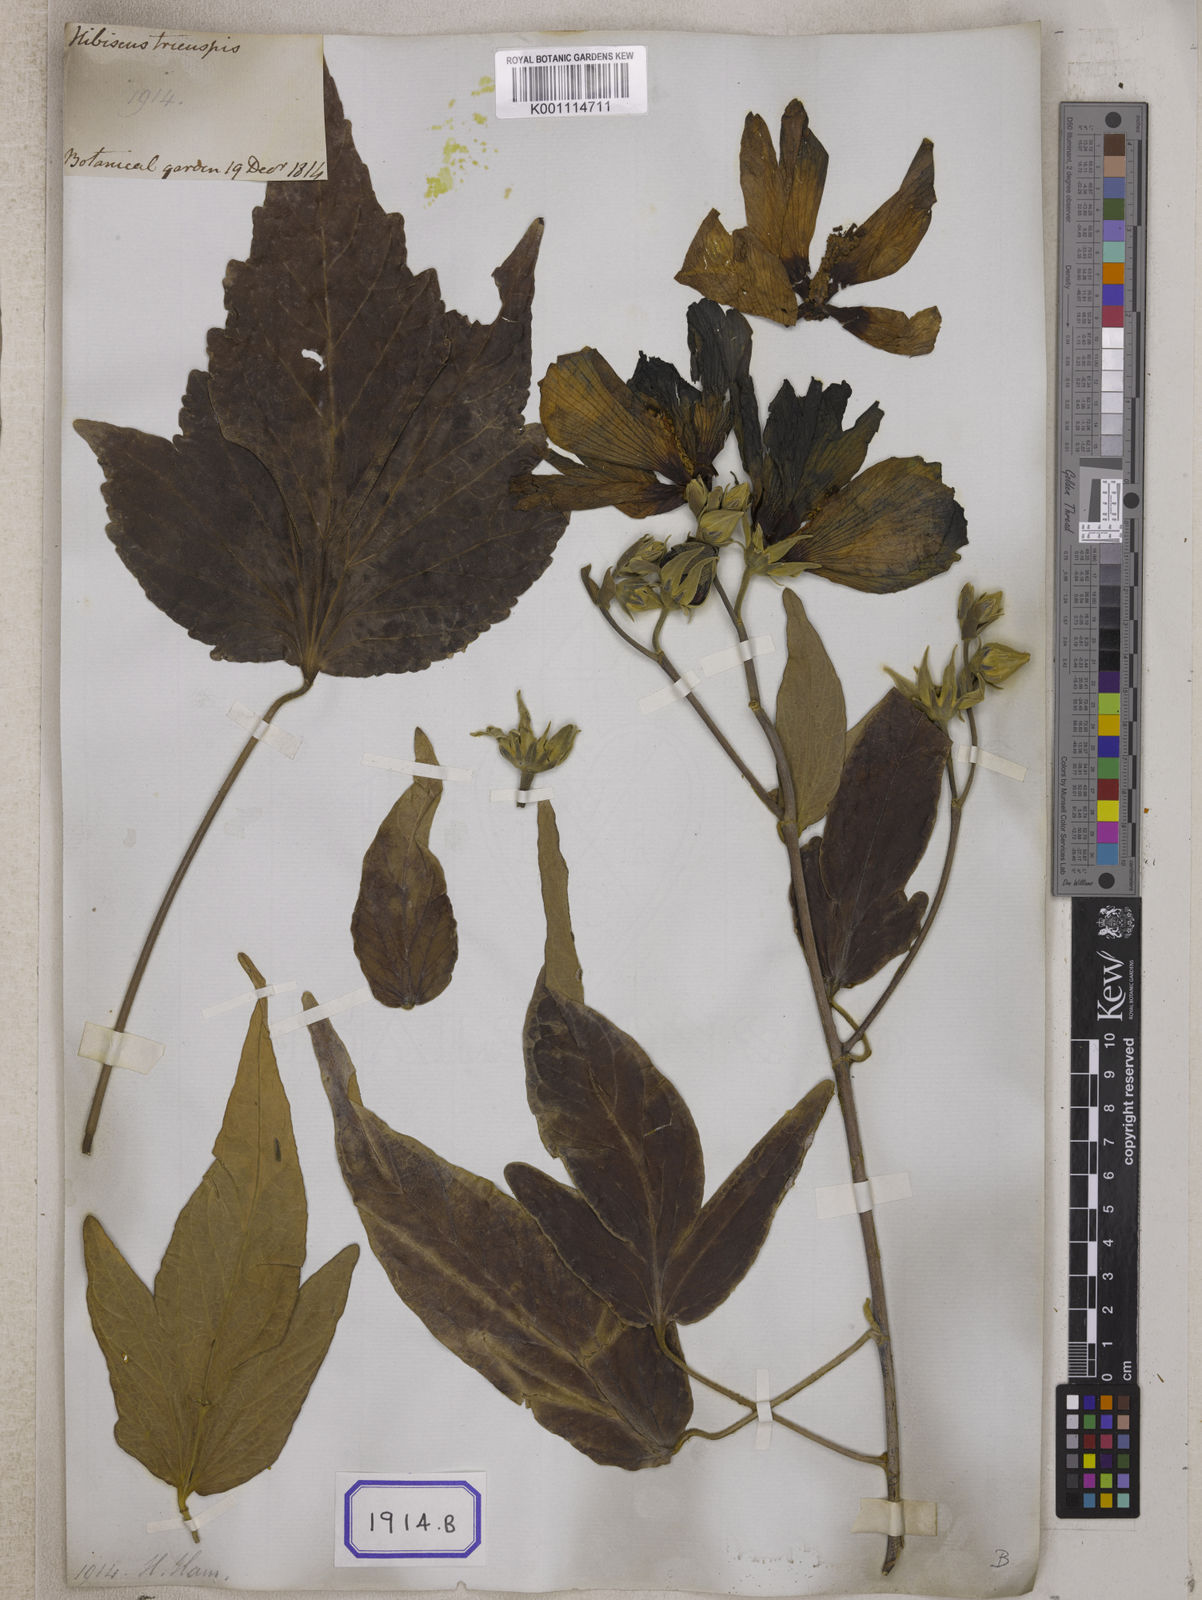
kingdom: Plantae
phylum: Tracheophyta
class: Magnoliopsida
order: Malvales
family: Malvaceae
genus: Talipariti
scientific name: Talipariti tiliaceum
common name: Sea hibiscus
